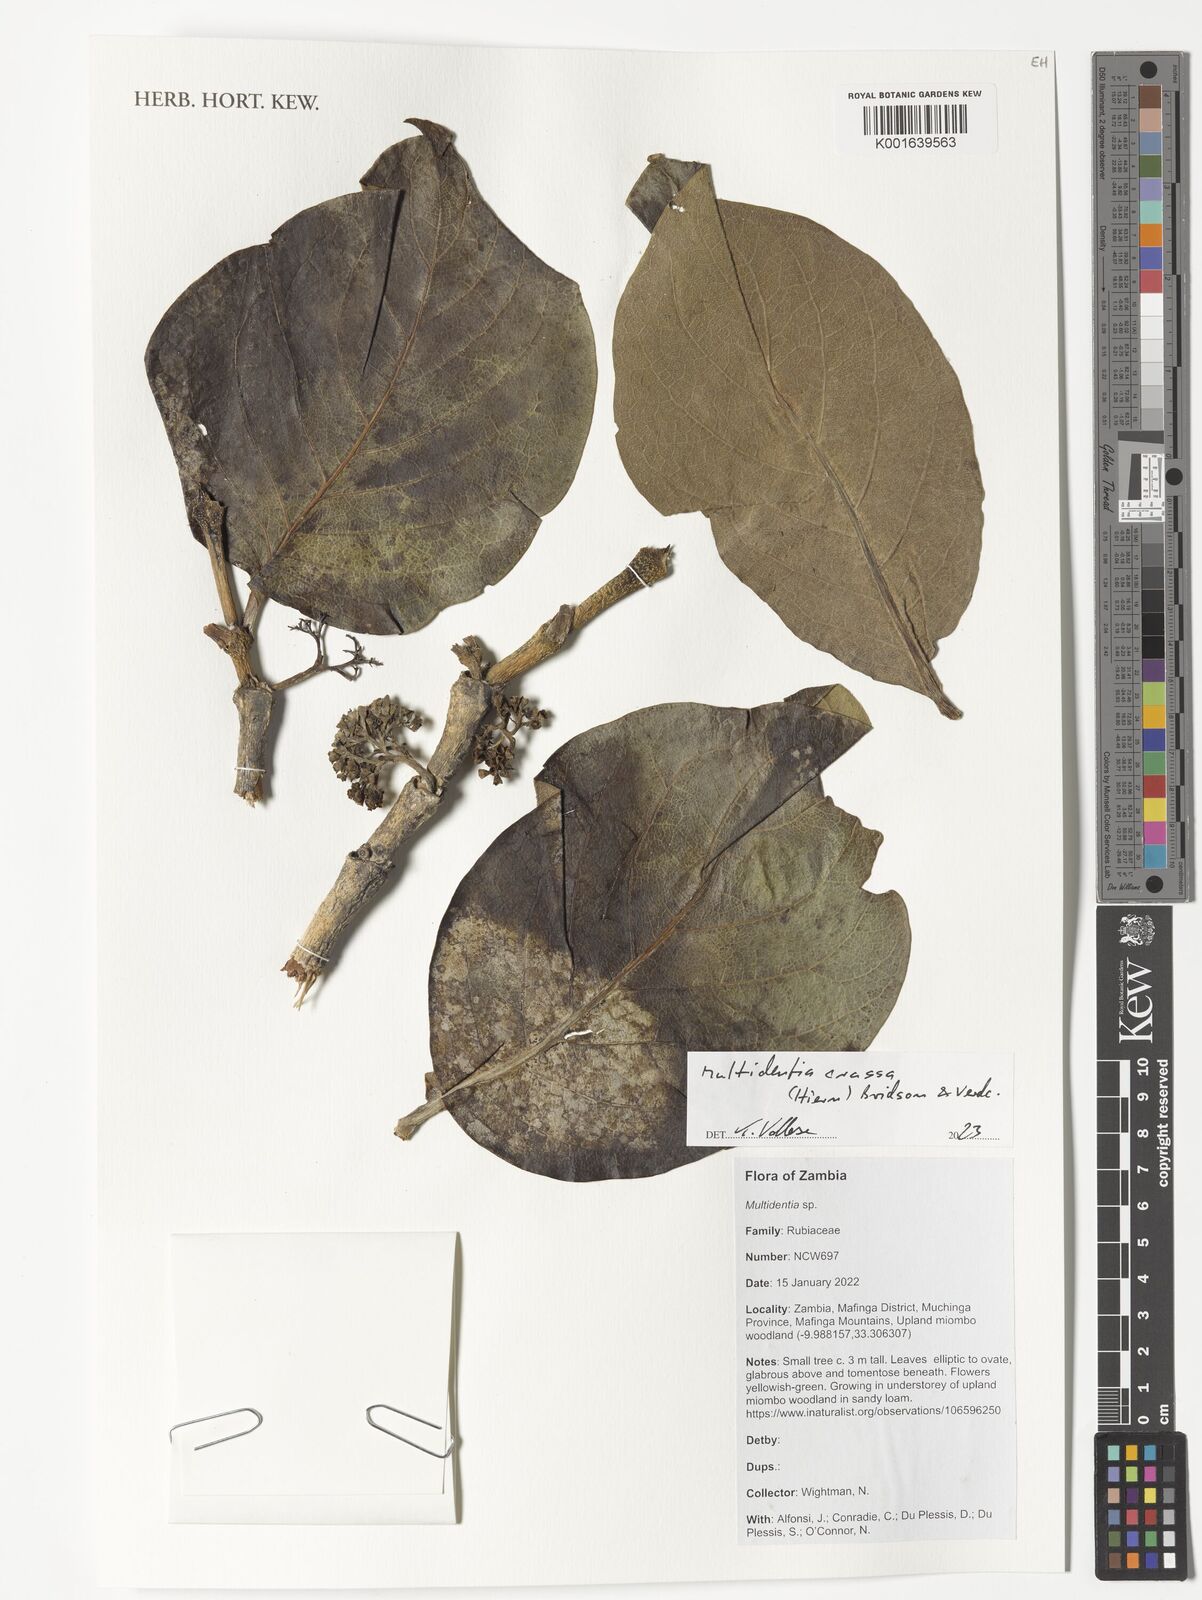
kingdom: Plantae
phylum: Tracheophyta
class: Magnoliopsida
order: Gentianales
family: Rubiaceae
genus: Multidentia
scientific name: Multidentia crassa
